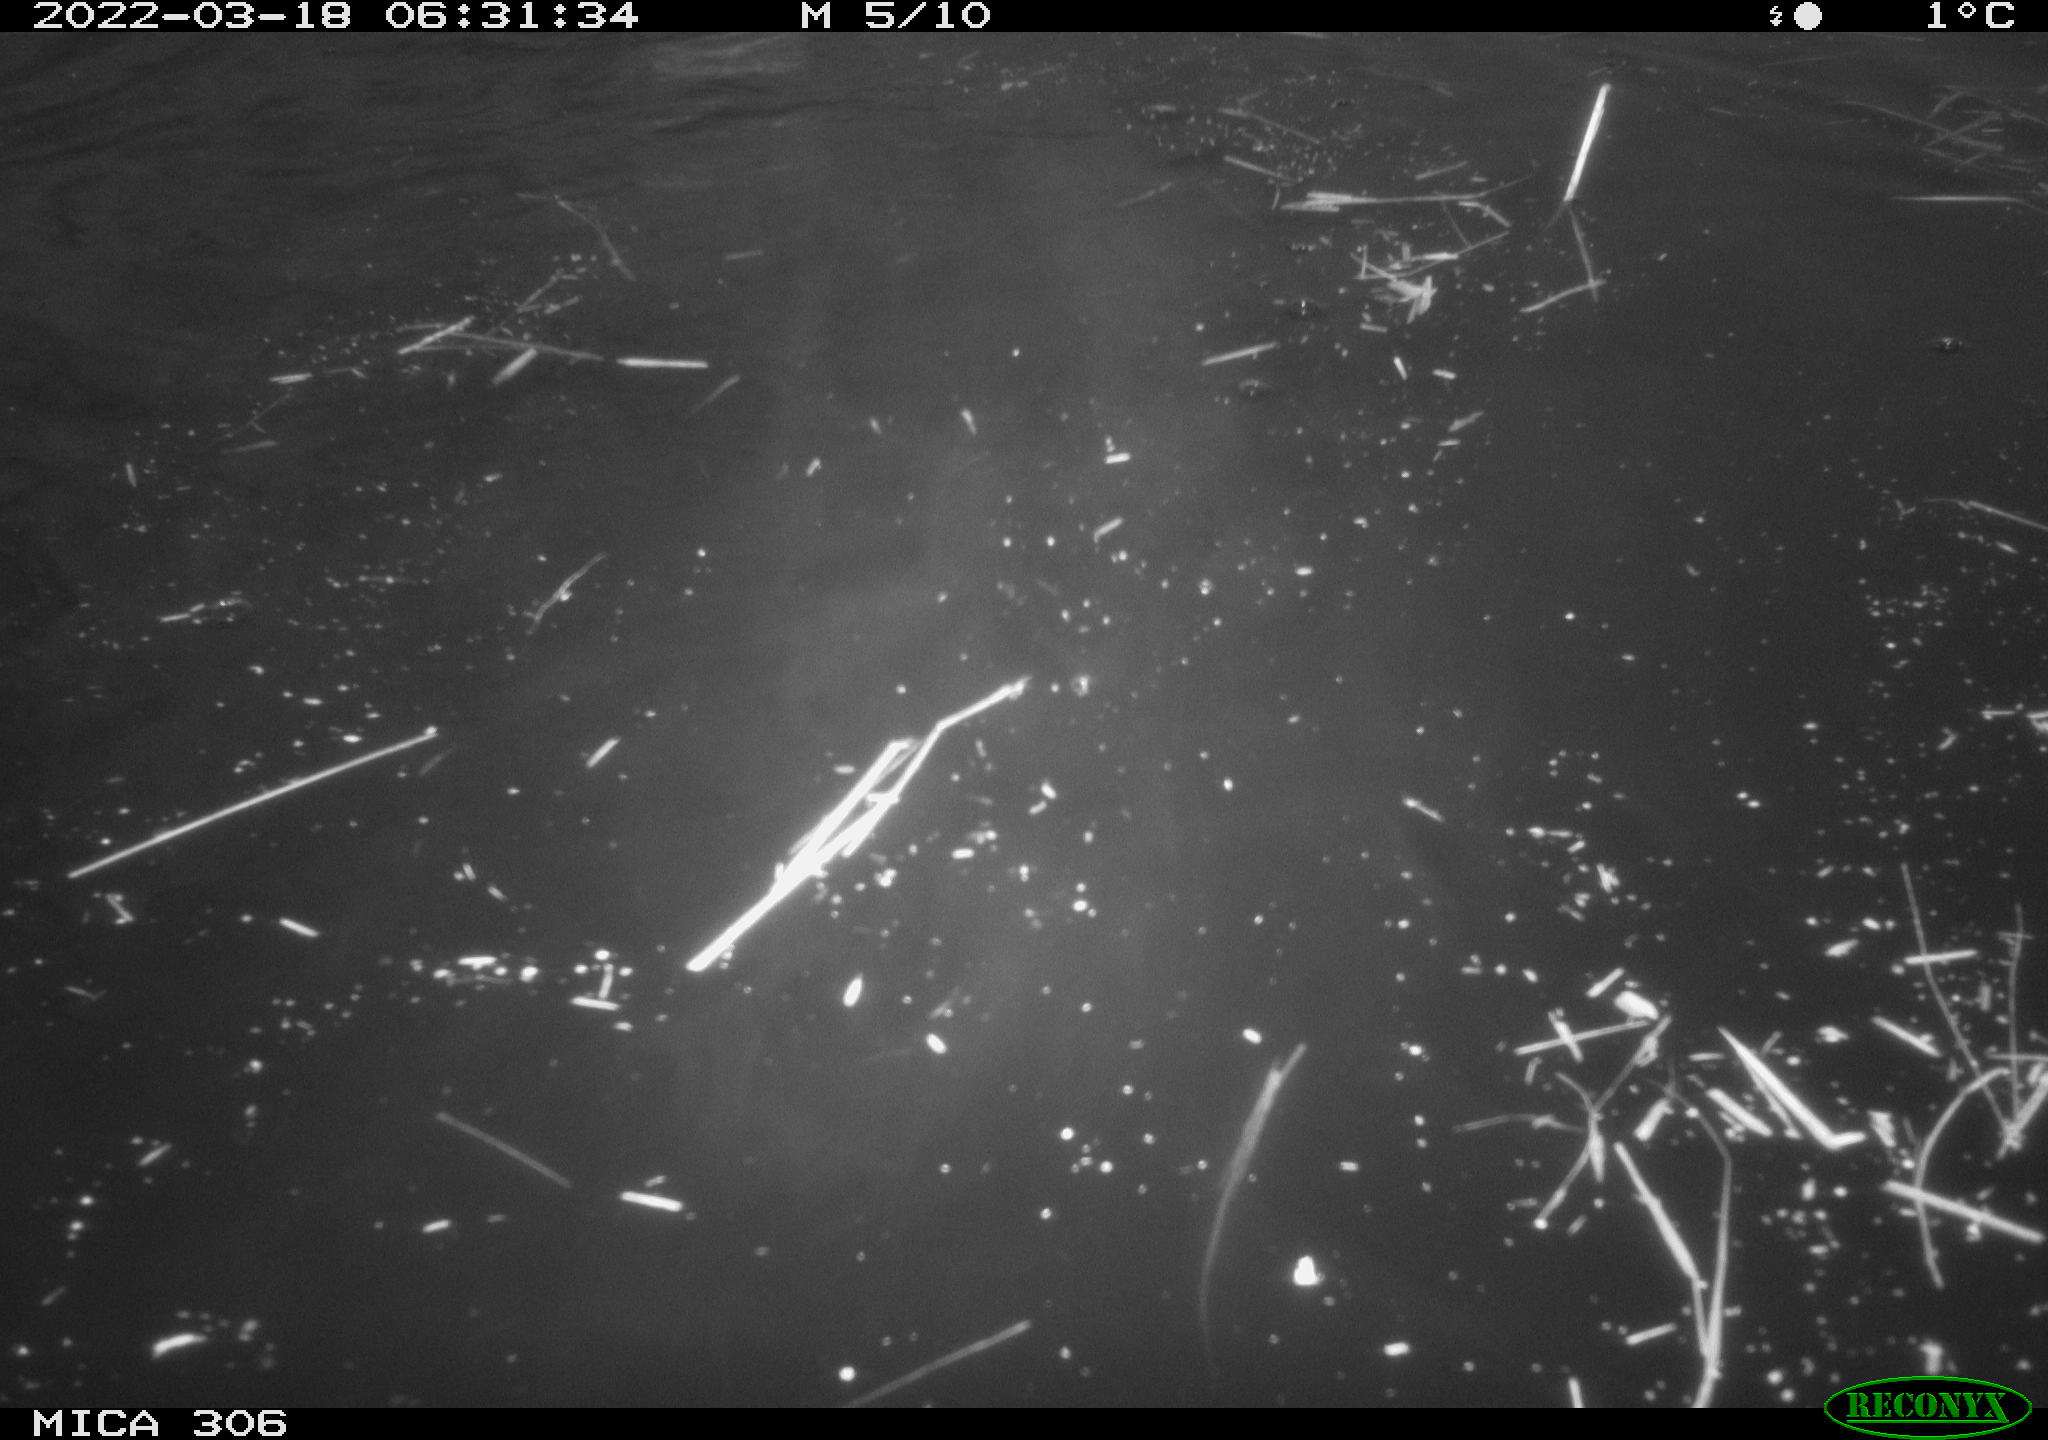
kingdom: Animalia
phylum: Chordata
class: Aves
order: Anseriformes
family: Anatidae
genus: Anas
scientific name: Anas platyrhynchos
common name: Mallard
